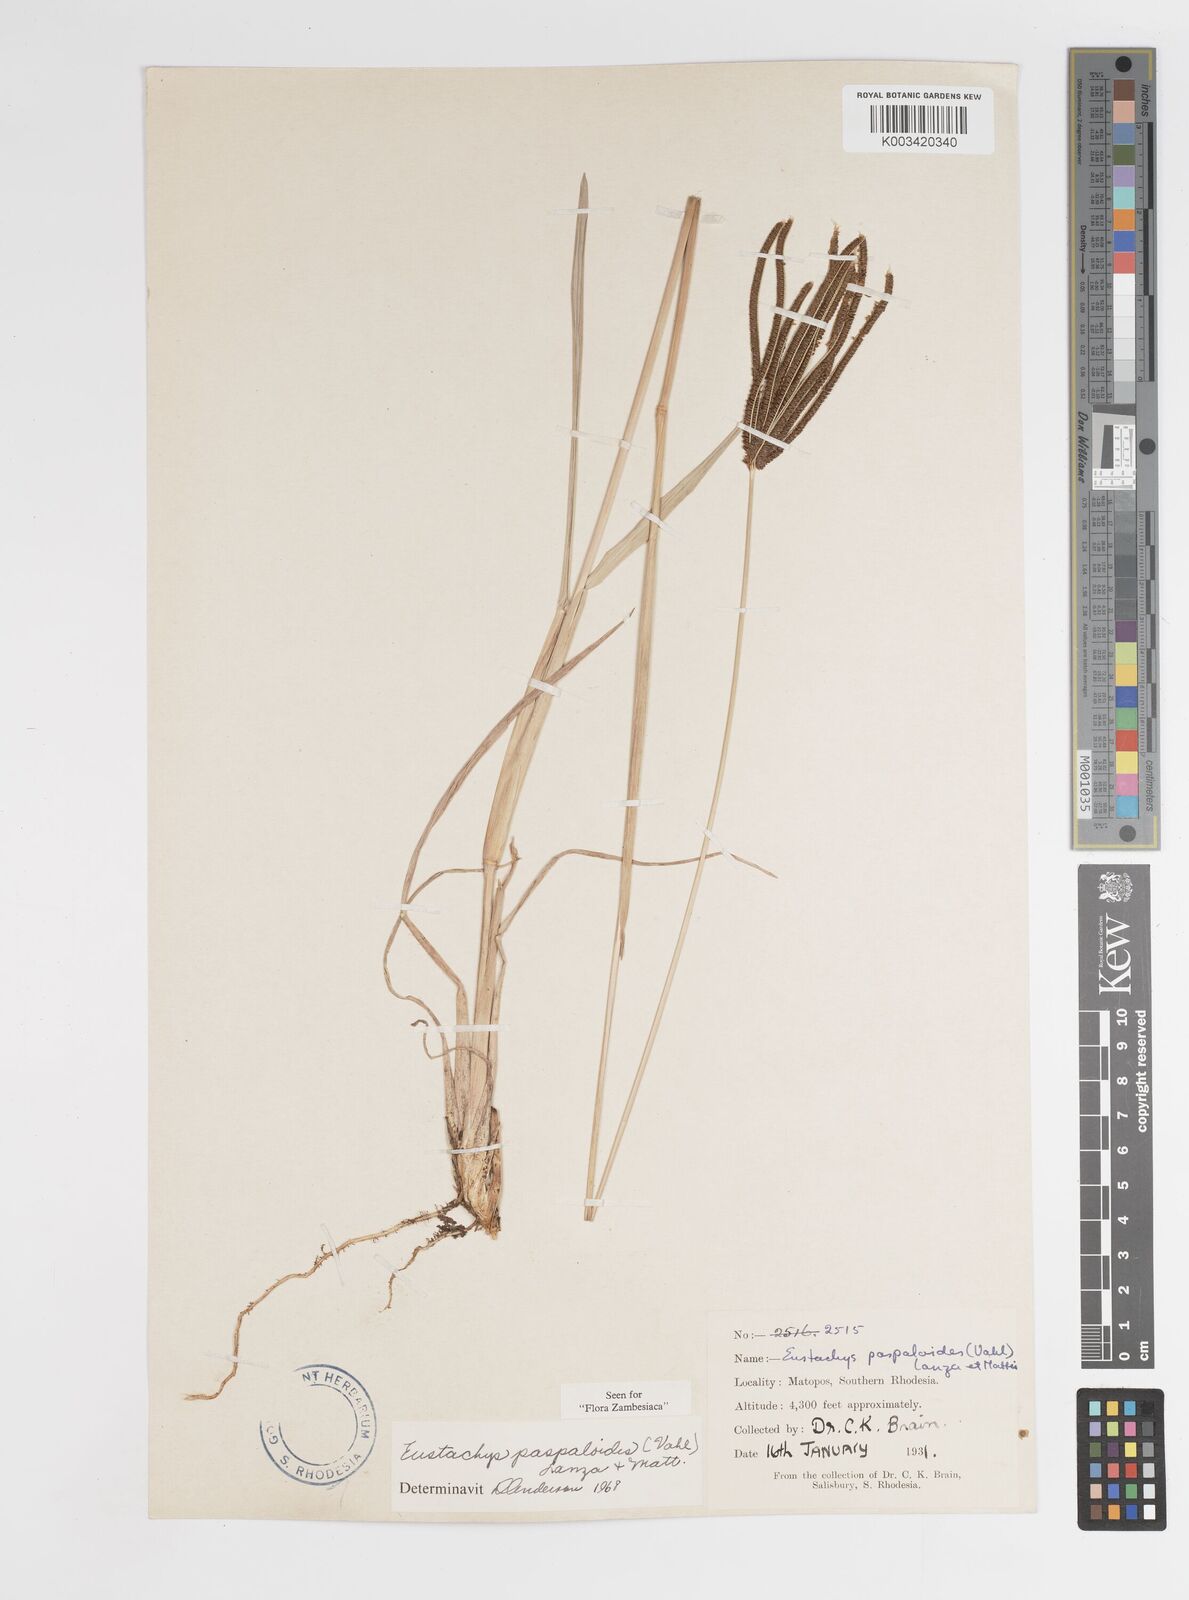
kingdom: Plantae
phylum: Tracheophyta
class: Liliopsida
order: Poales
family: Poaceae
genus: Eustachys
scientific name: Eustachys paspaloides
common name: Caribbean fingergrass
